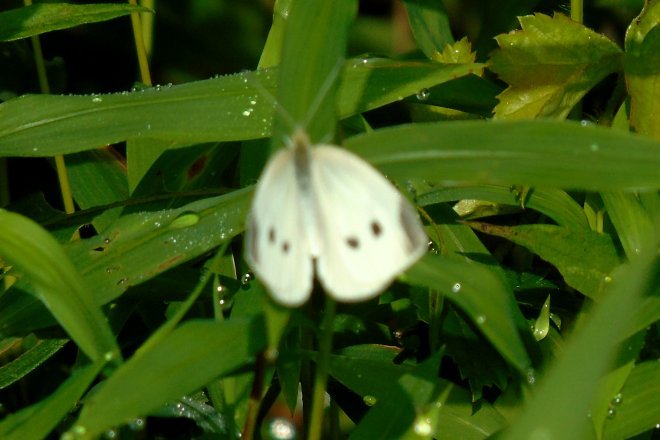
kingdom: Animalia
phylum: Arthropoda
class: Insecta
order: Lepidoptera
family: Pieridae
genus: Pieris
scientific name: Pieris rapae
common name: Cabbage White
